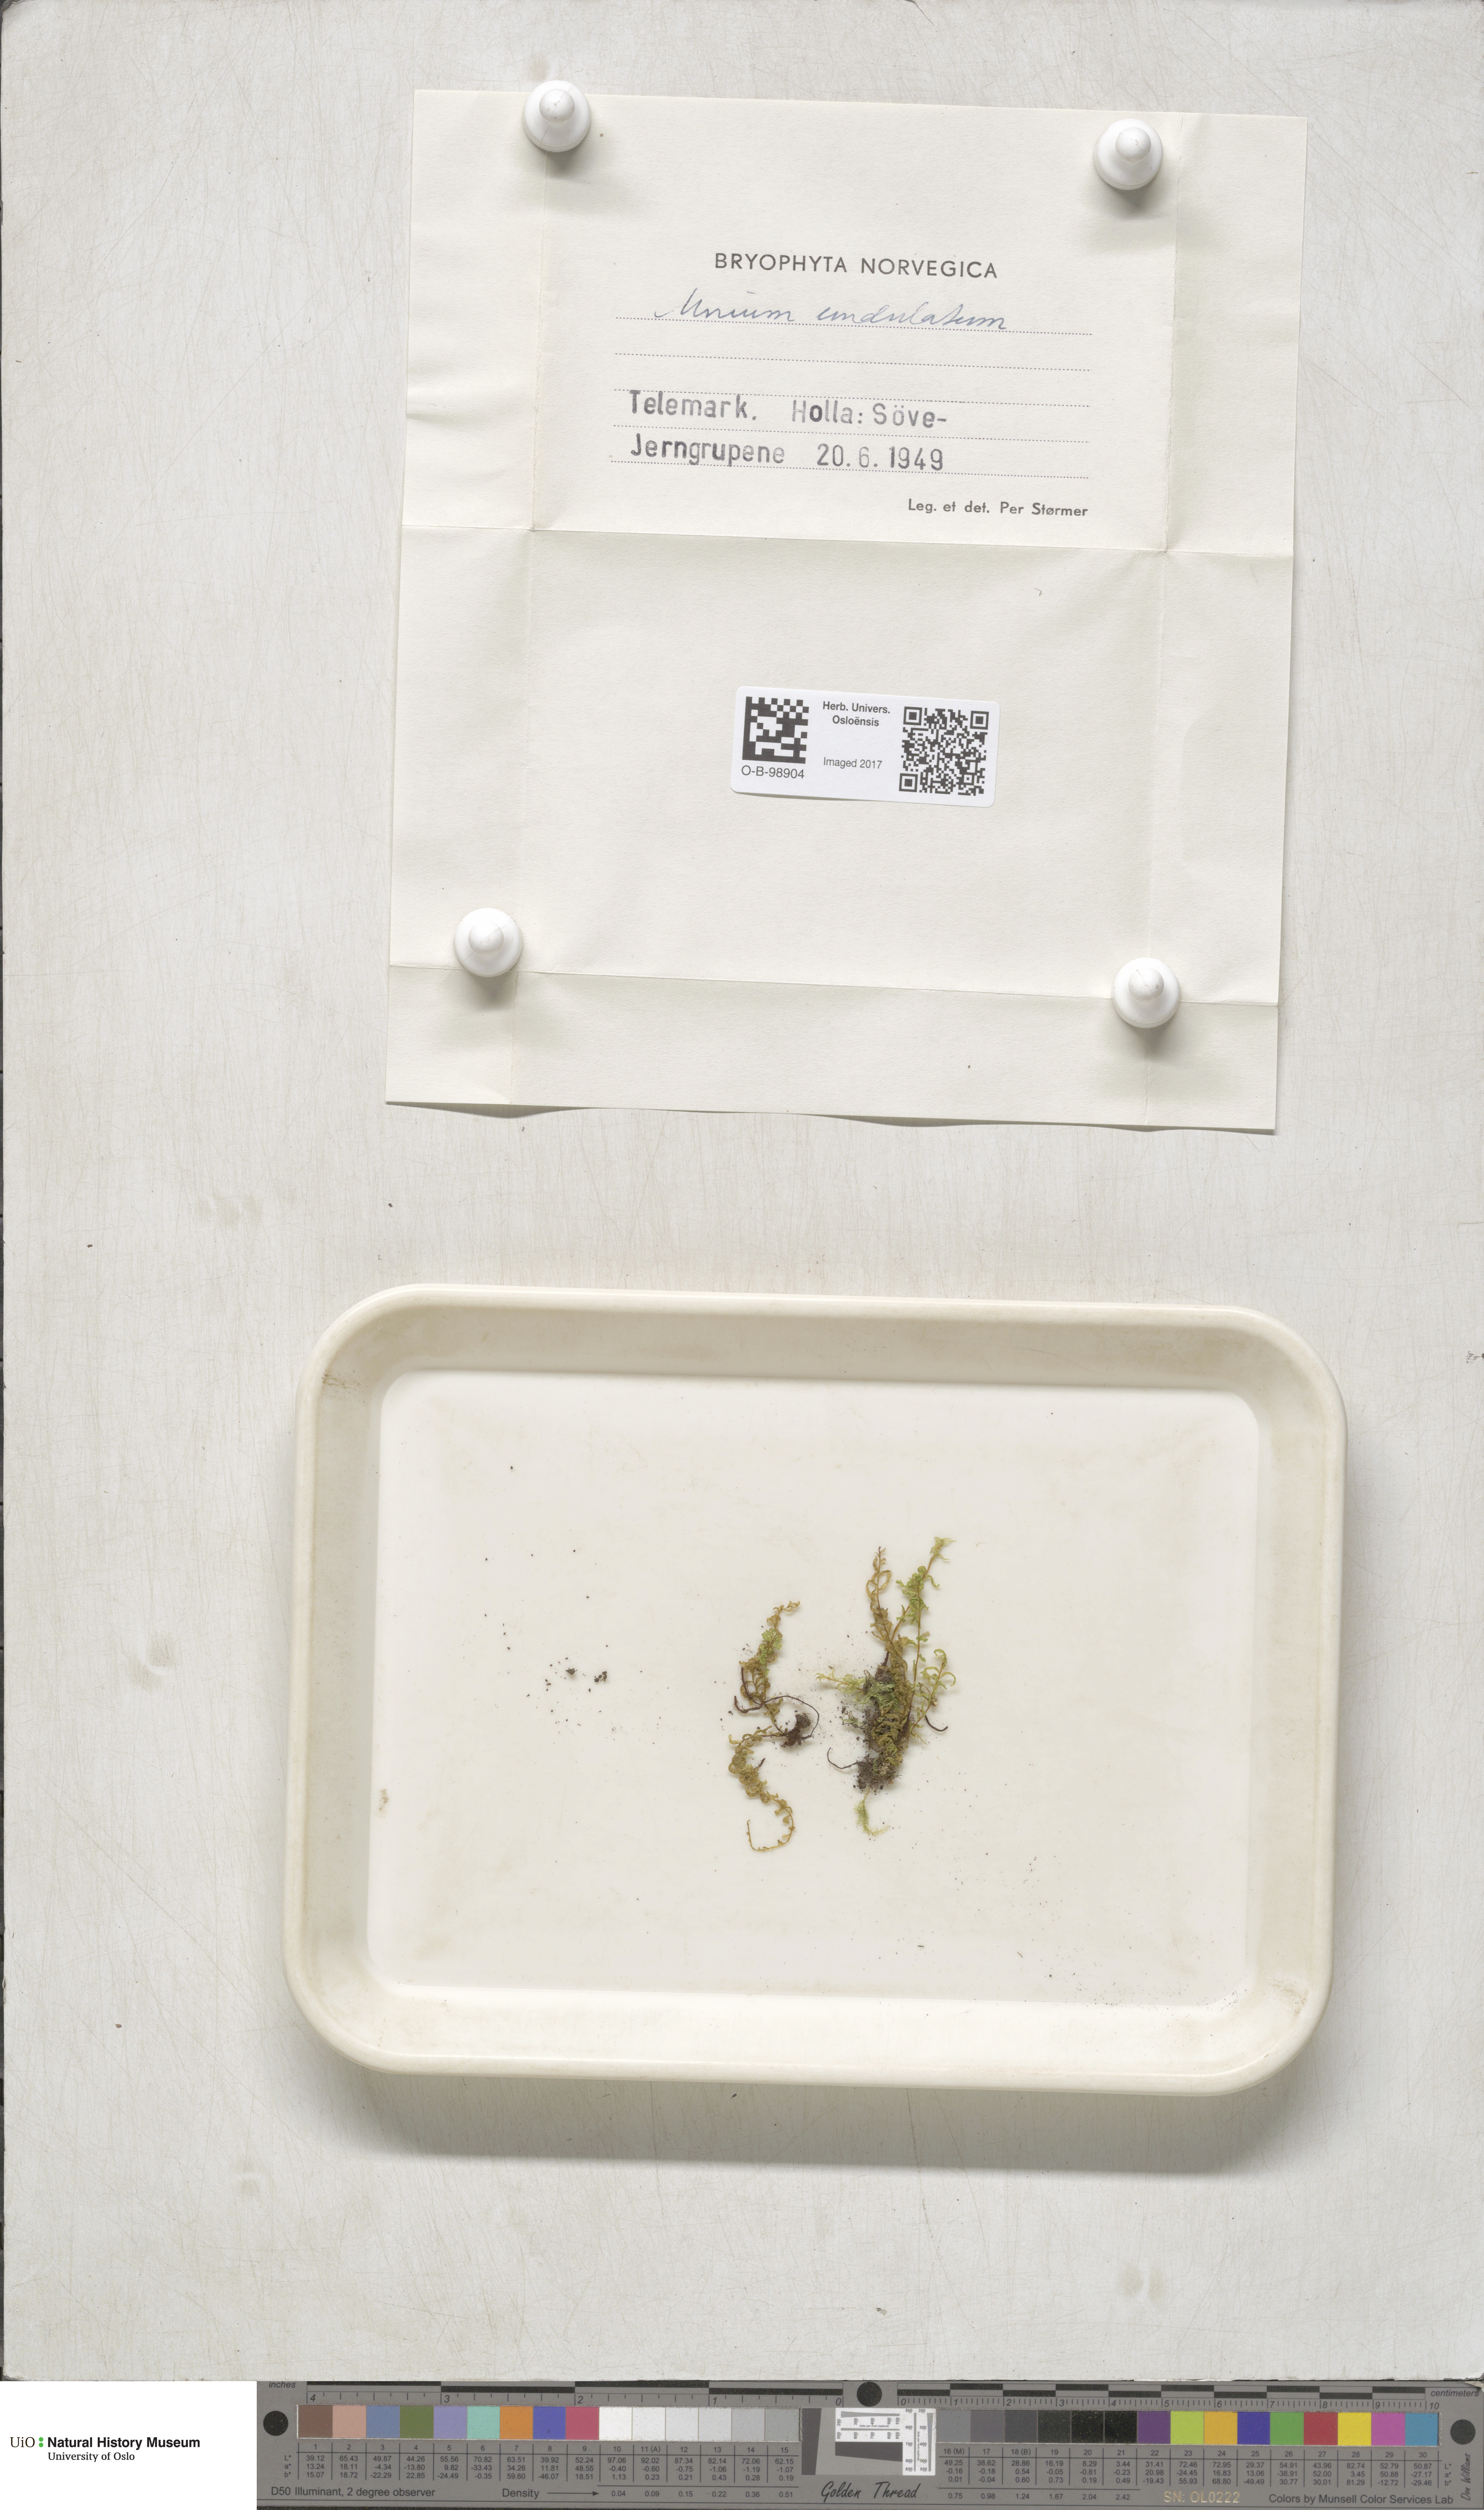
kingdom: Plantae
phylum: Bryophyta
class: Bryopsida
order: Bryales
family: Mniaceae
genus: Plagiomnium
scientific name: Plagiomnium undulatum
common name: Hart's-tongue thyme-moss
